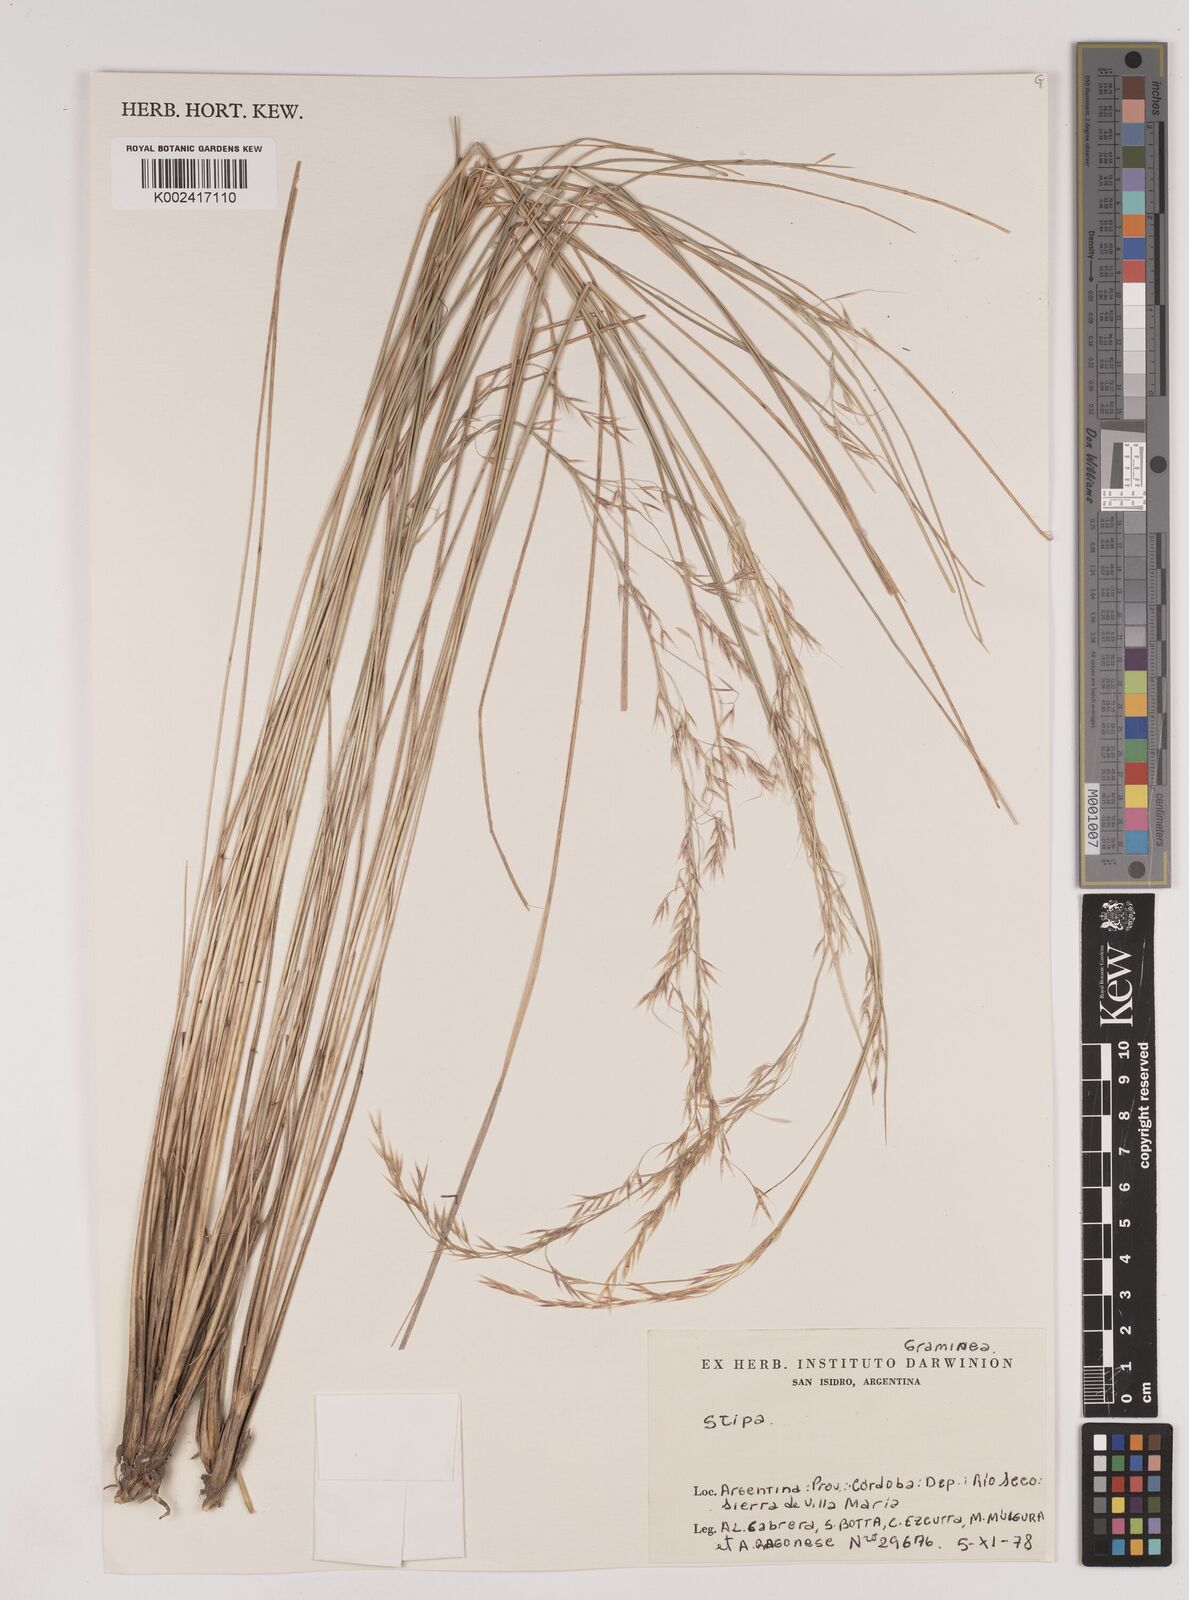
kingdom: Plantae
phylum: Tracheophyta
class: Liliopsida
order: Poales
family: Poaceae
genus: Stipa
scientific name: Stipa
